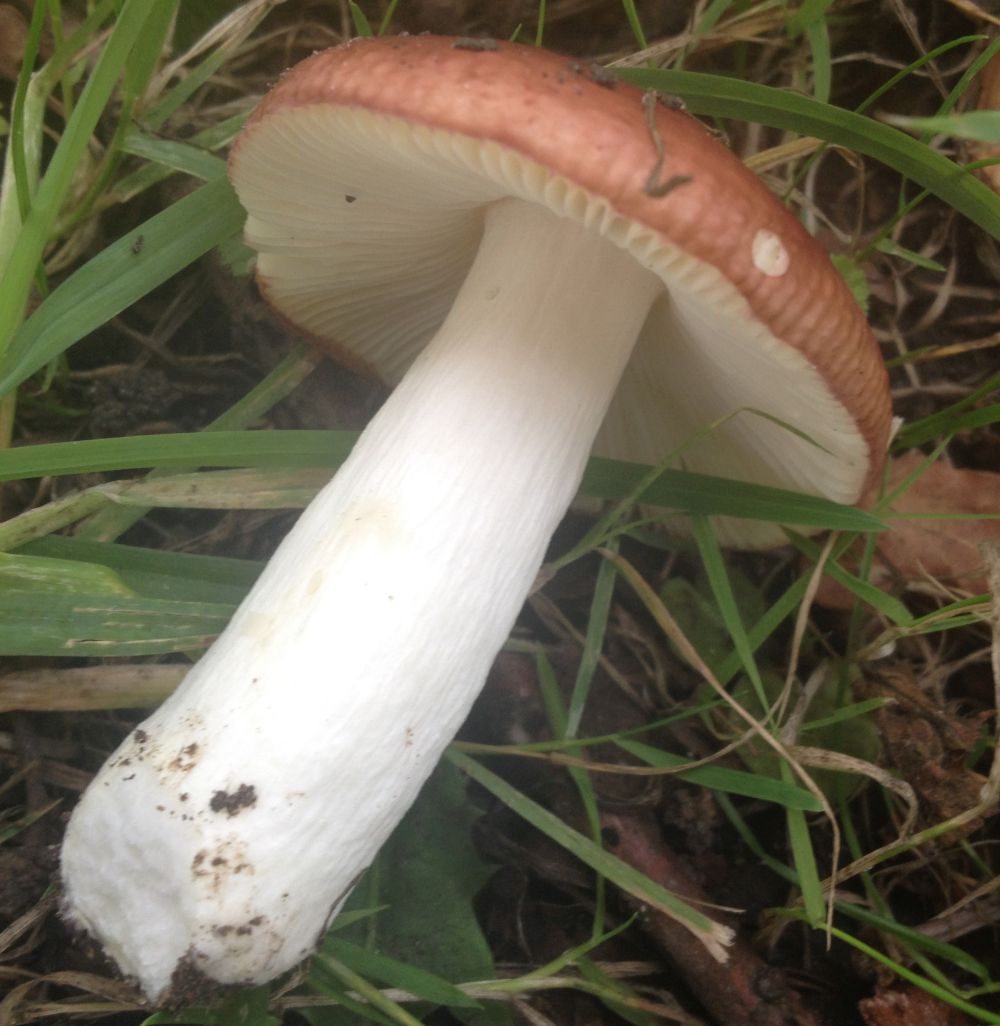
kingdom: Fungi
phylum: Basidiomycota
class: Agaricomycetes
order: Russulales
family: Russulaceae
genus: Russula
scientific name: Russula
